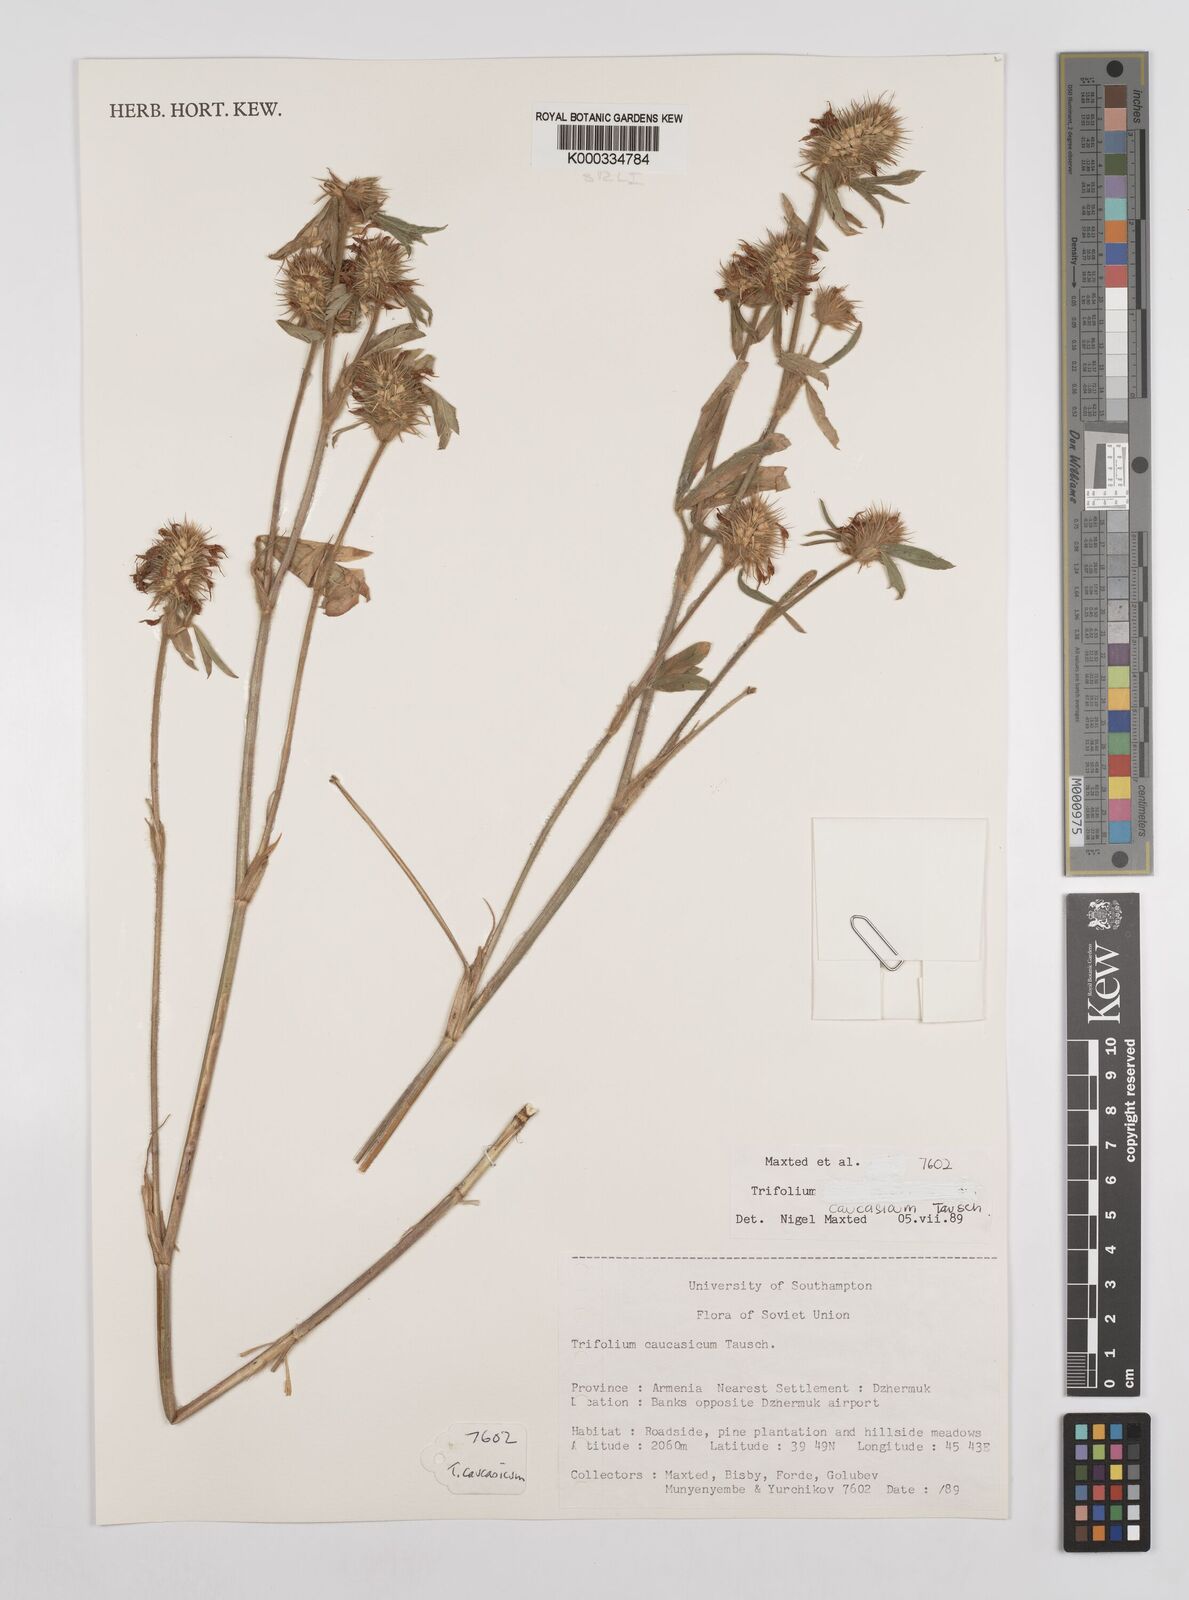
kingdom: Plantae
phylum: Tracheophyta
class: Magnoliopsida
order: Fabales
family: Fabaceae
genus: Trifolium
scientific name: Trifolium ochroleucon
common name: Sulphur clover
